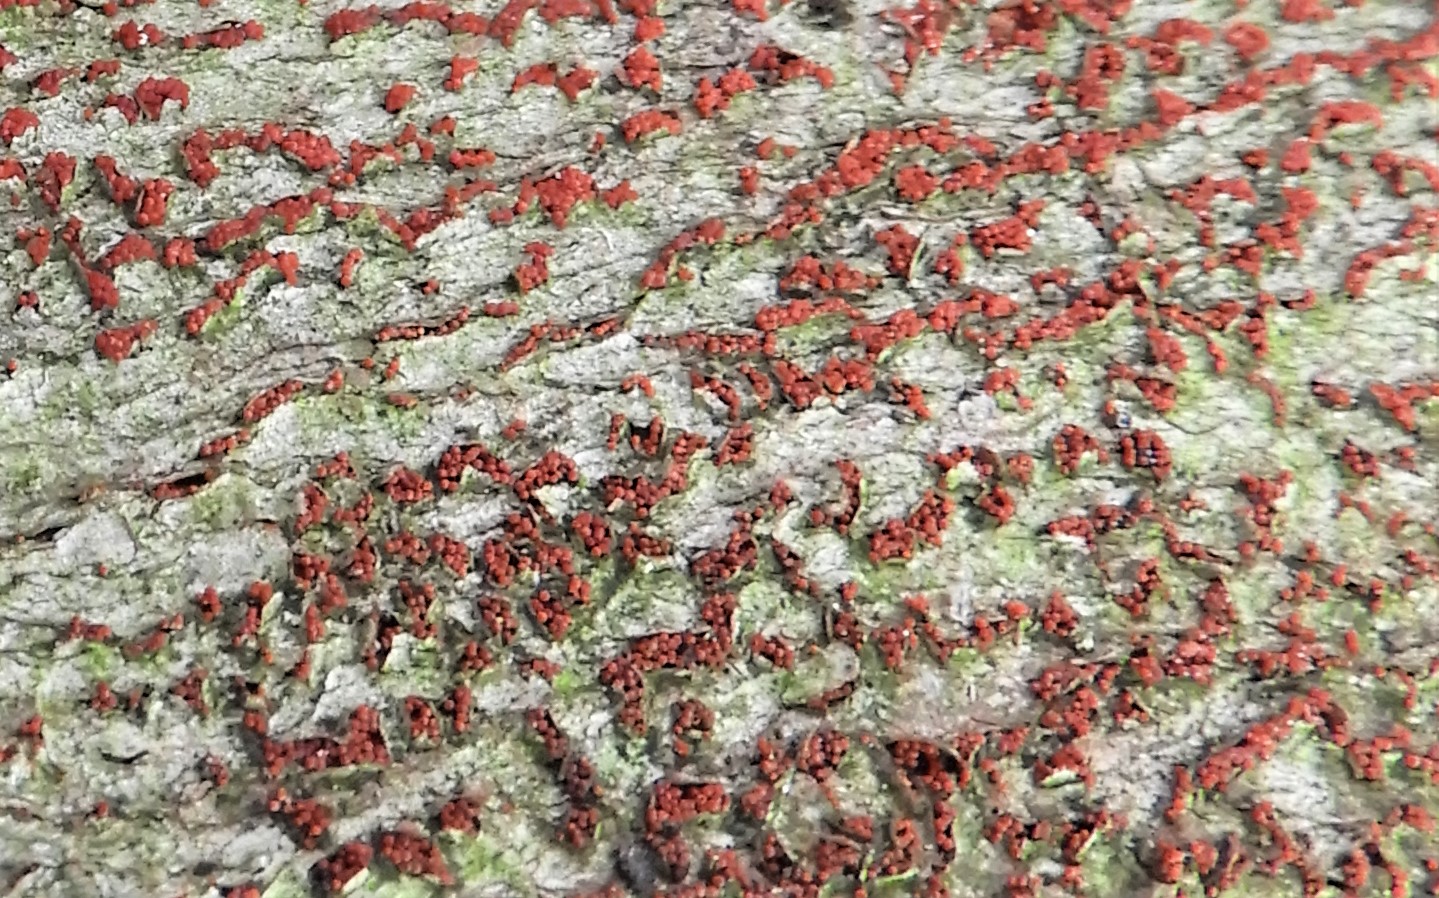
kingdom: Fungi
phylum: Ascomycota
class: Sordariomycetes
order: Hypocreales
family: Nectriaceae
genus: Neonectria
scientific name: Neonectria coccinea
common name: bøgebark-cinnobersvamp
